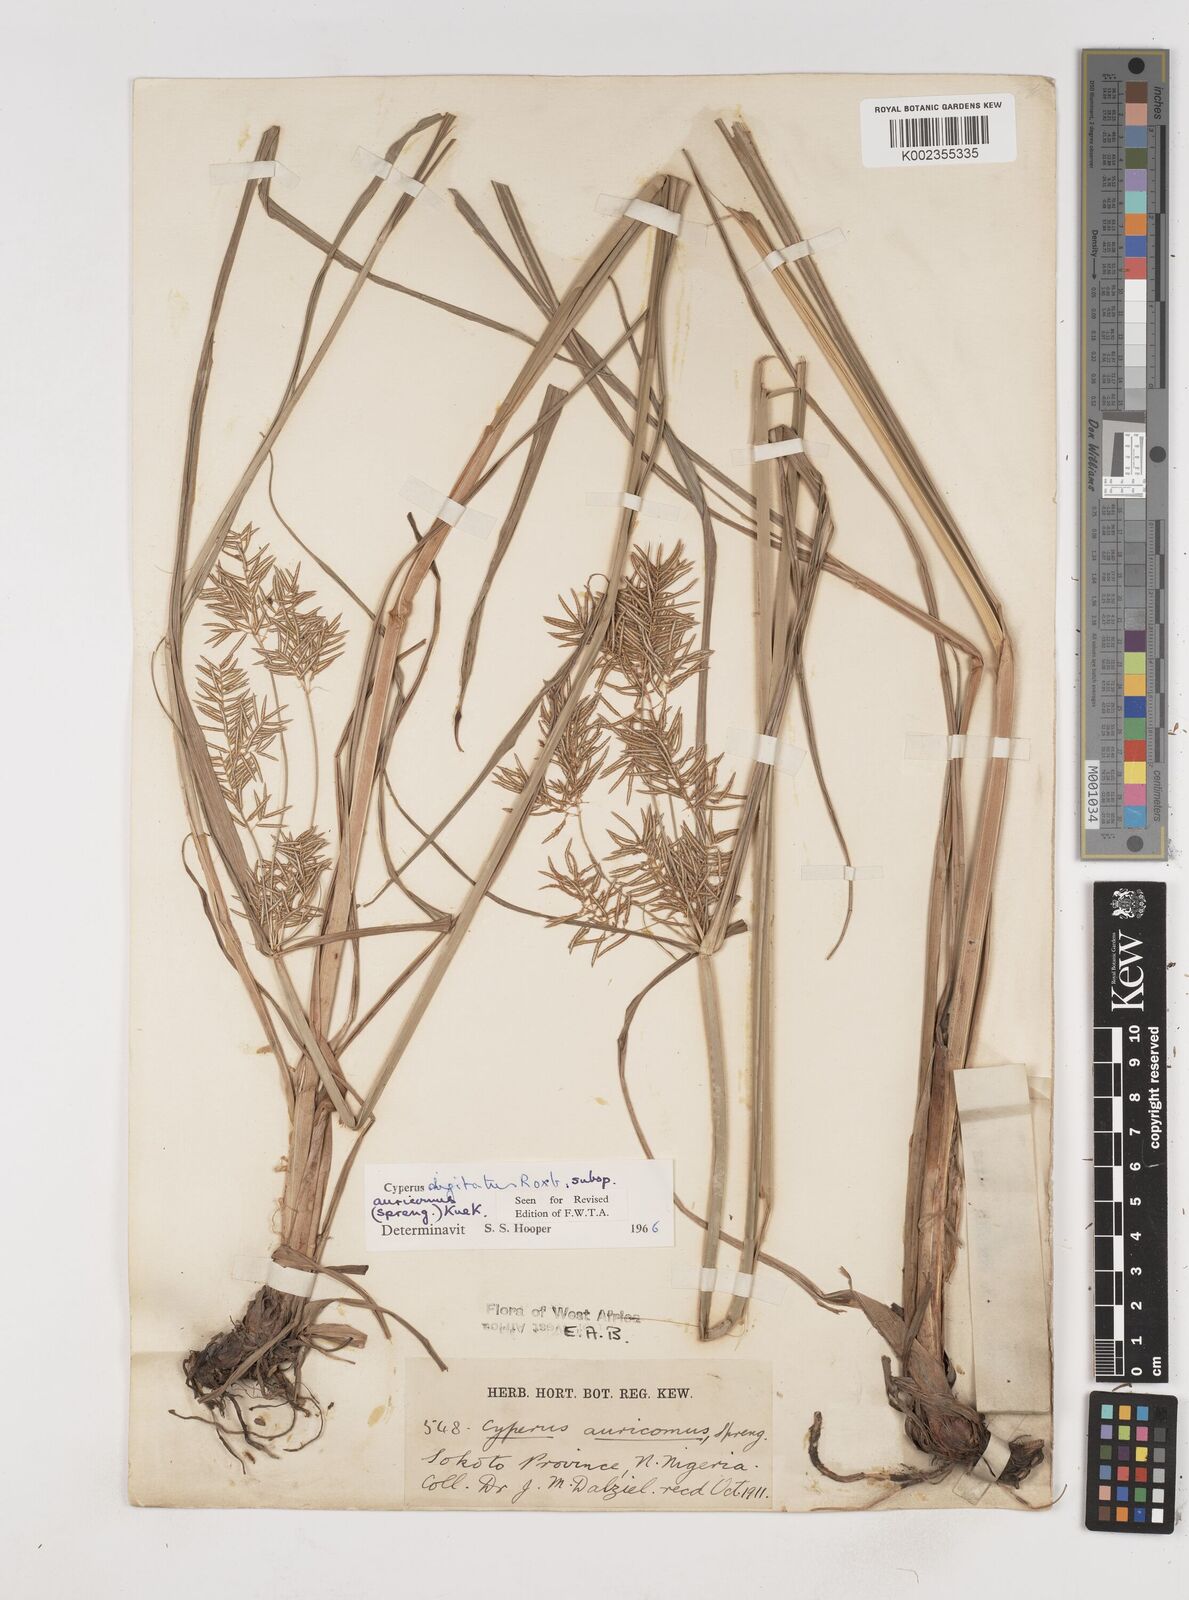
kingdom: Plantae
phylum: Tracheophyta
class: Liliopsida
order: Poales
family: Cyperaceae
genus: Cyperus
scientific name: Cyperus digitatus
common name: Finger flatsedge
